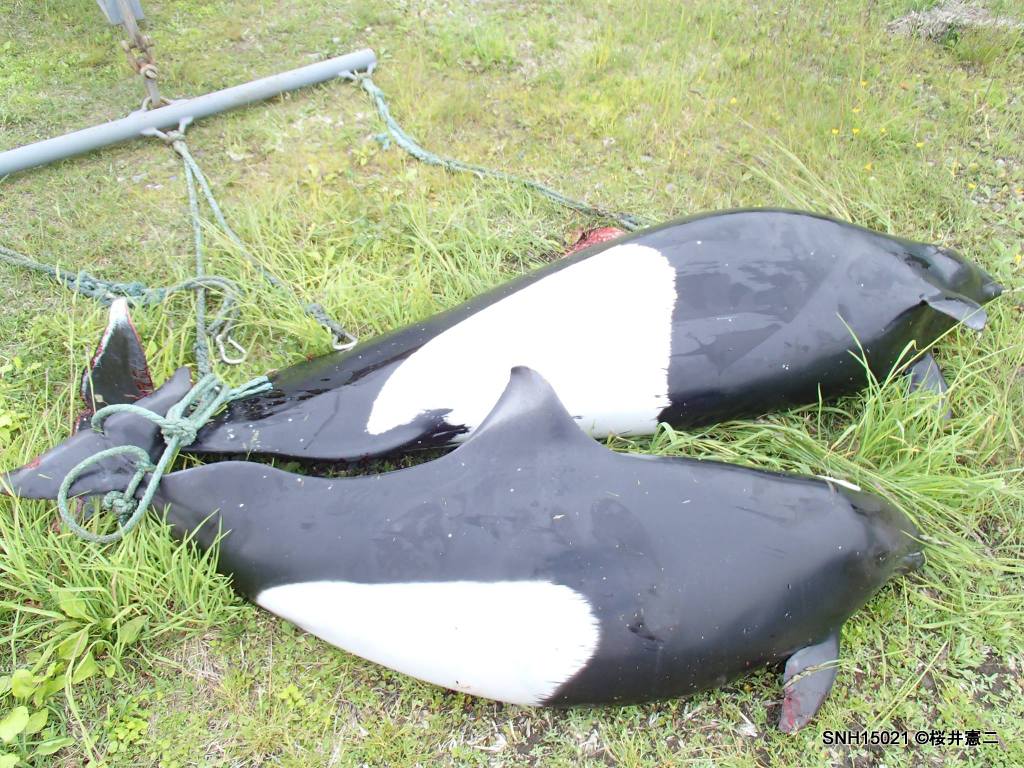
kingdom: Animalia
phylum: Chordata
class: Mammalia
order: Cetacea
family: Phocoenidae
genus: Phocoenoides
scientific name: Phocoenoides dalli
